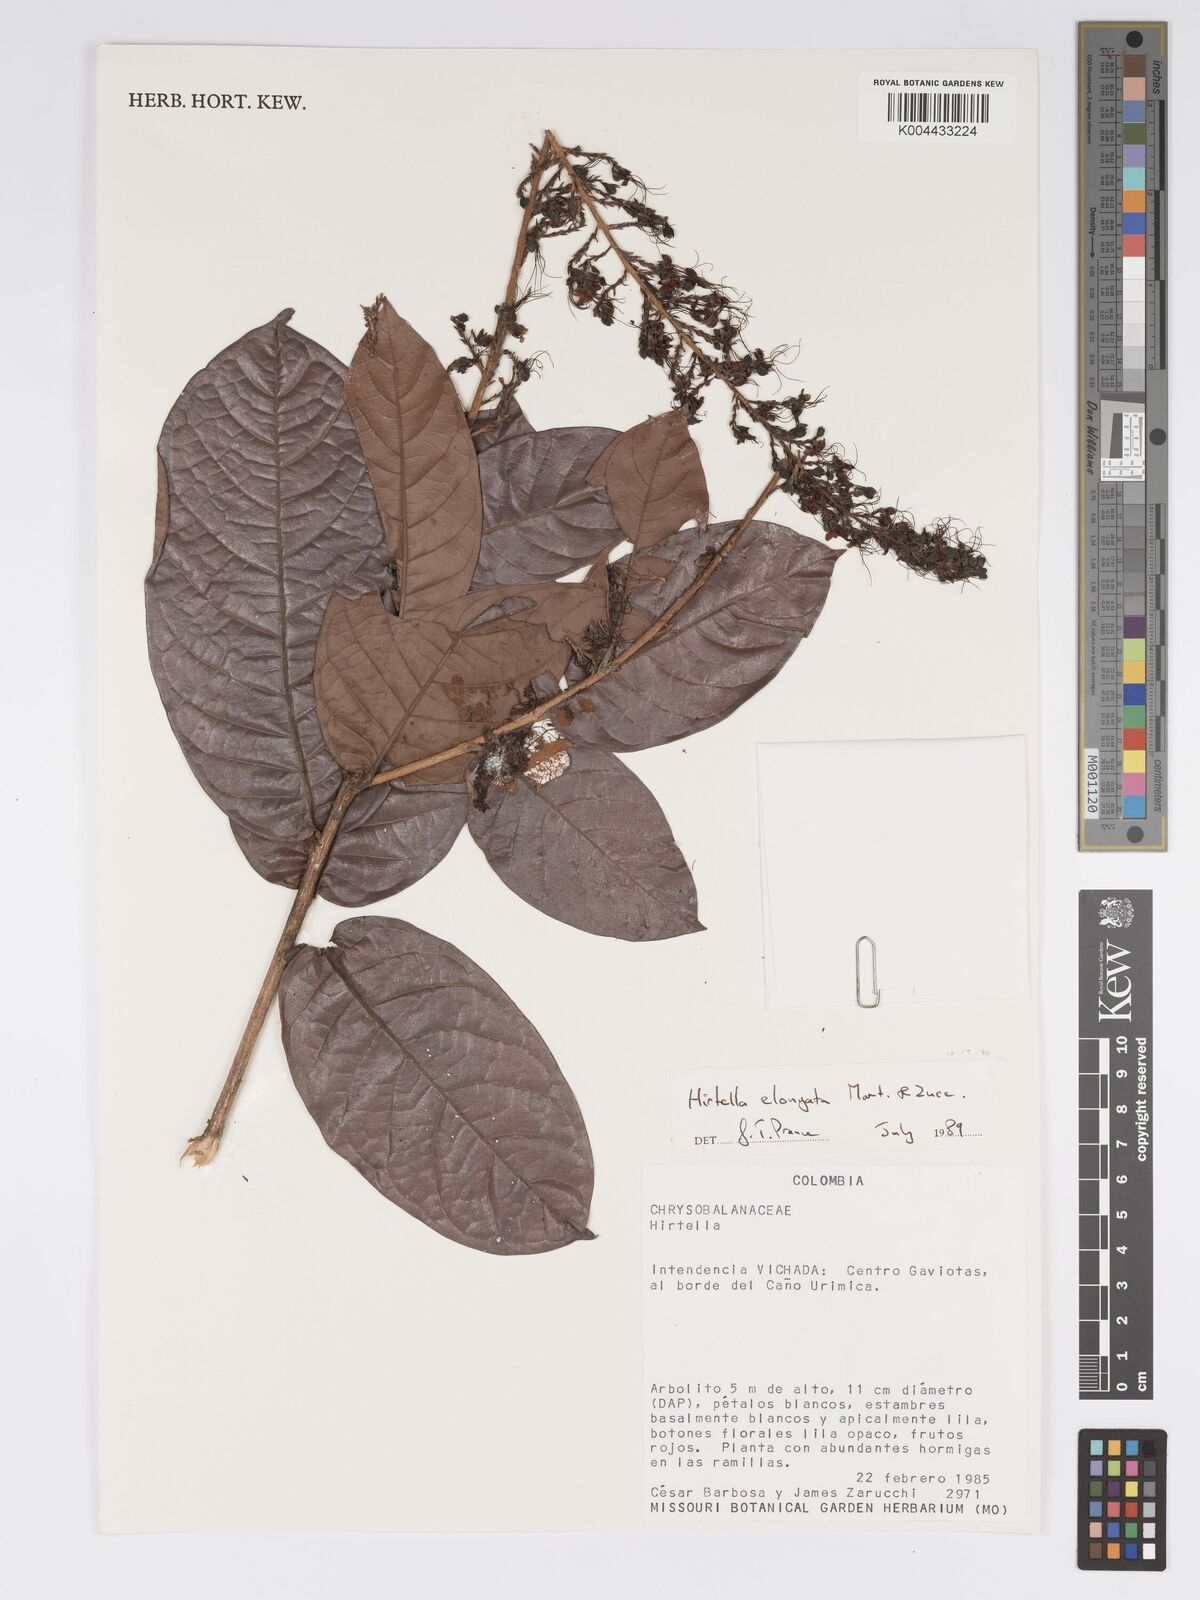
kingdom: Plantae
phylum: Tracheophyta
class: Magnoliopsida
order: Malpighiales
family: Chrysobalanaceae
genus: Hirtella
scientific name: Hirtella elongata
